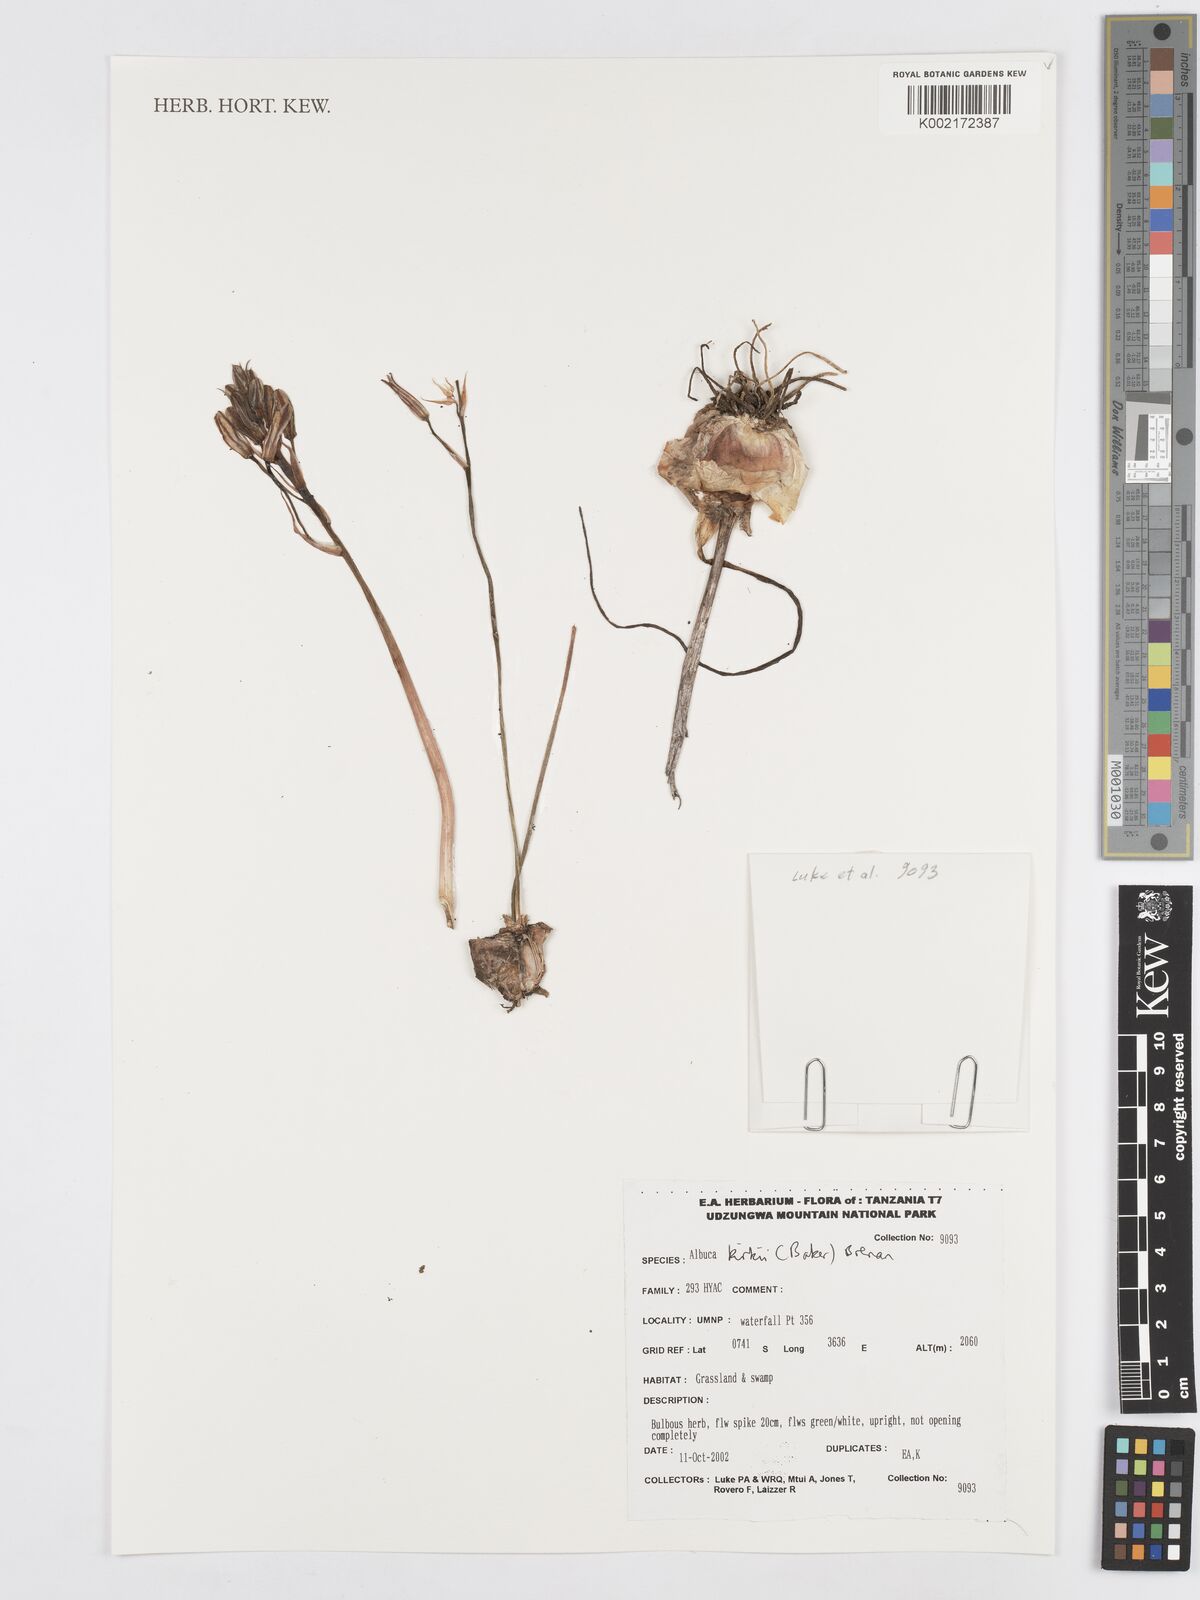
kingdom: Plantae
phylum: Tracheophyta
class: Liliopsida
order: Asparagales
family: Asparagaceae
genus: Albuca
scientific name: Albuca kirkii
